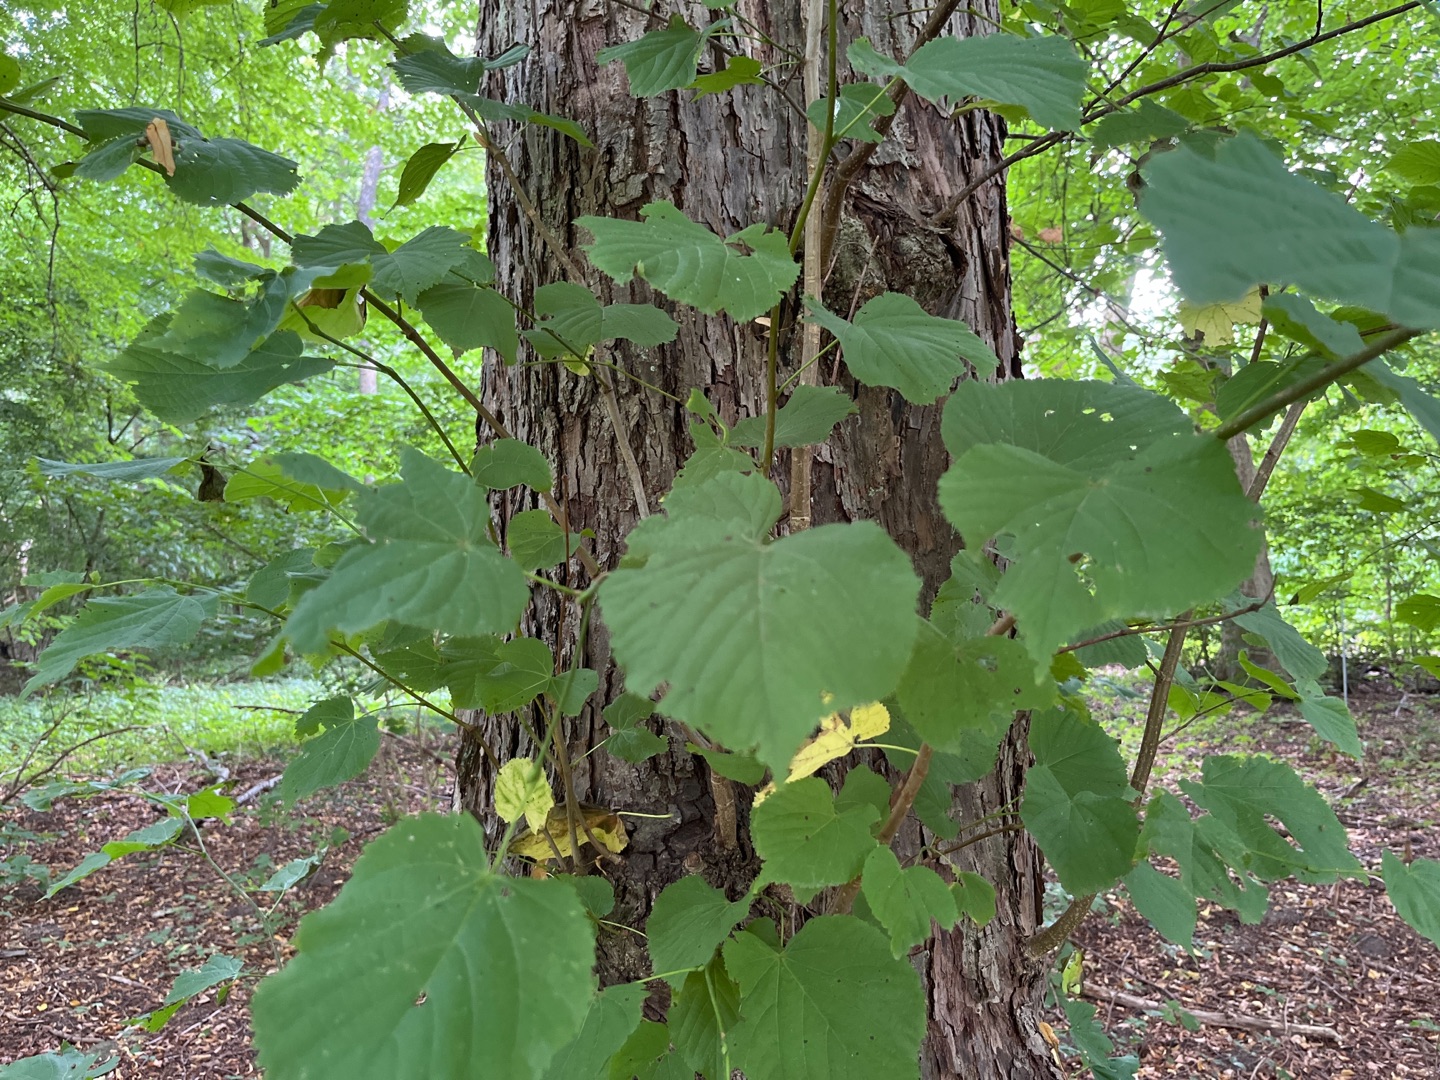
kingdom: Plantae
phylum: Tracheophyta
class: Magnoliopsida
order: Malvales
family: Malvaceae
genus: Tilia
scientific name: Tilia
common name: Lindeslægten
